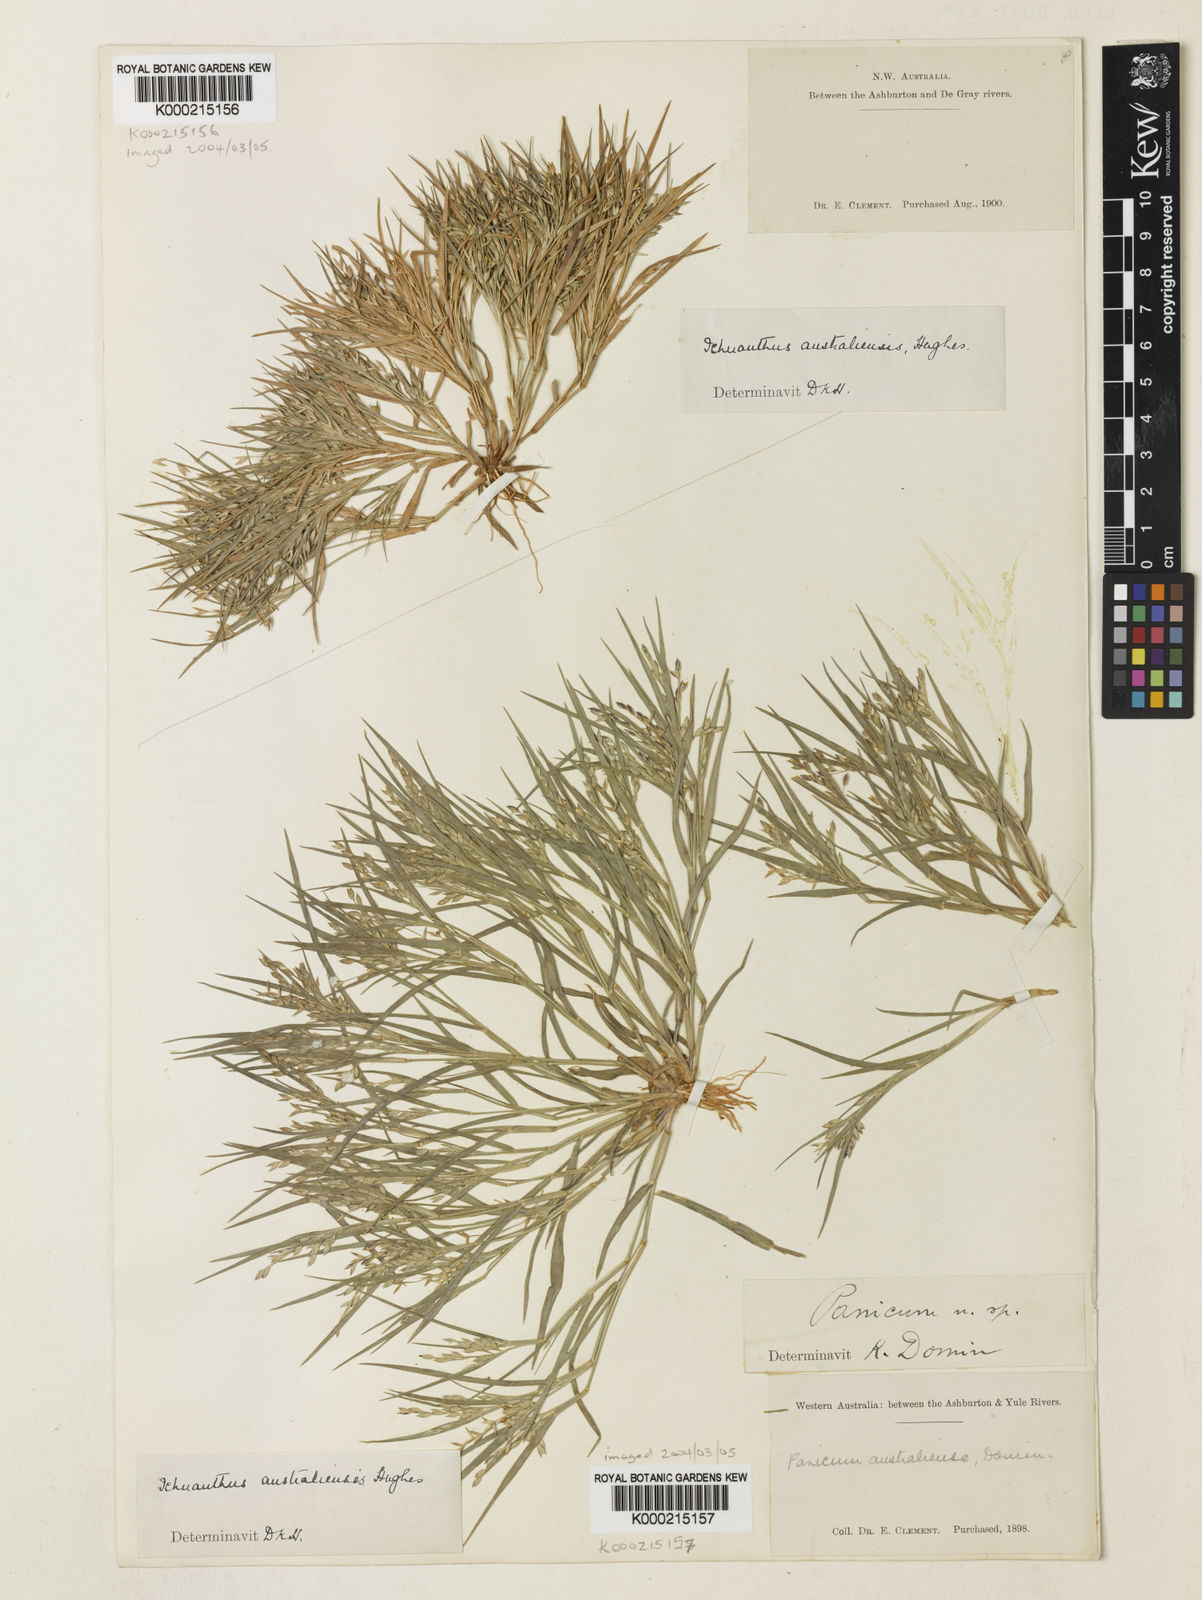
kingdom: Plantae
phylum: Tracheophyta
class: Liliopsida
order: Poales
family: Poaceae
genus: Panicum
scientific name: Panicum australiense
